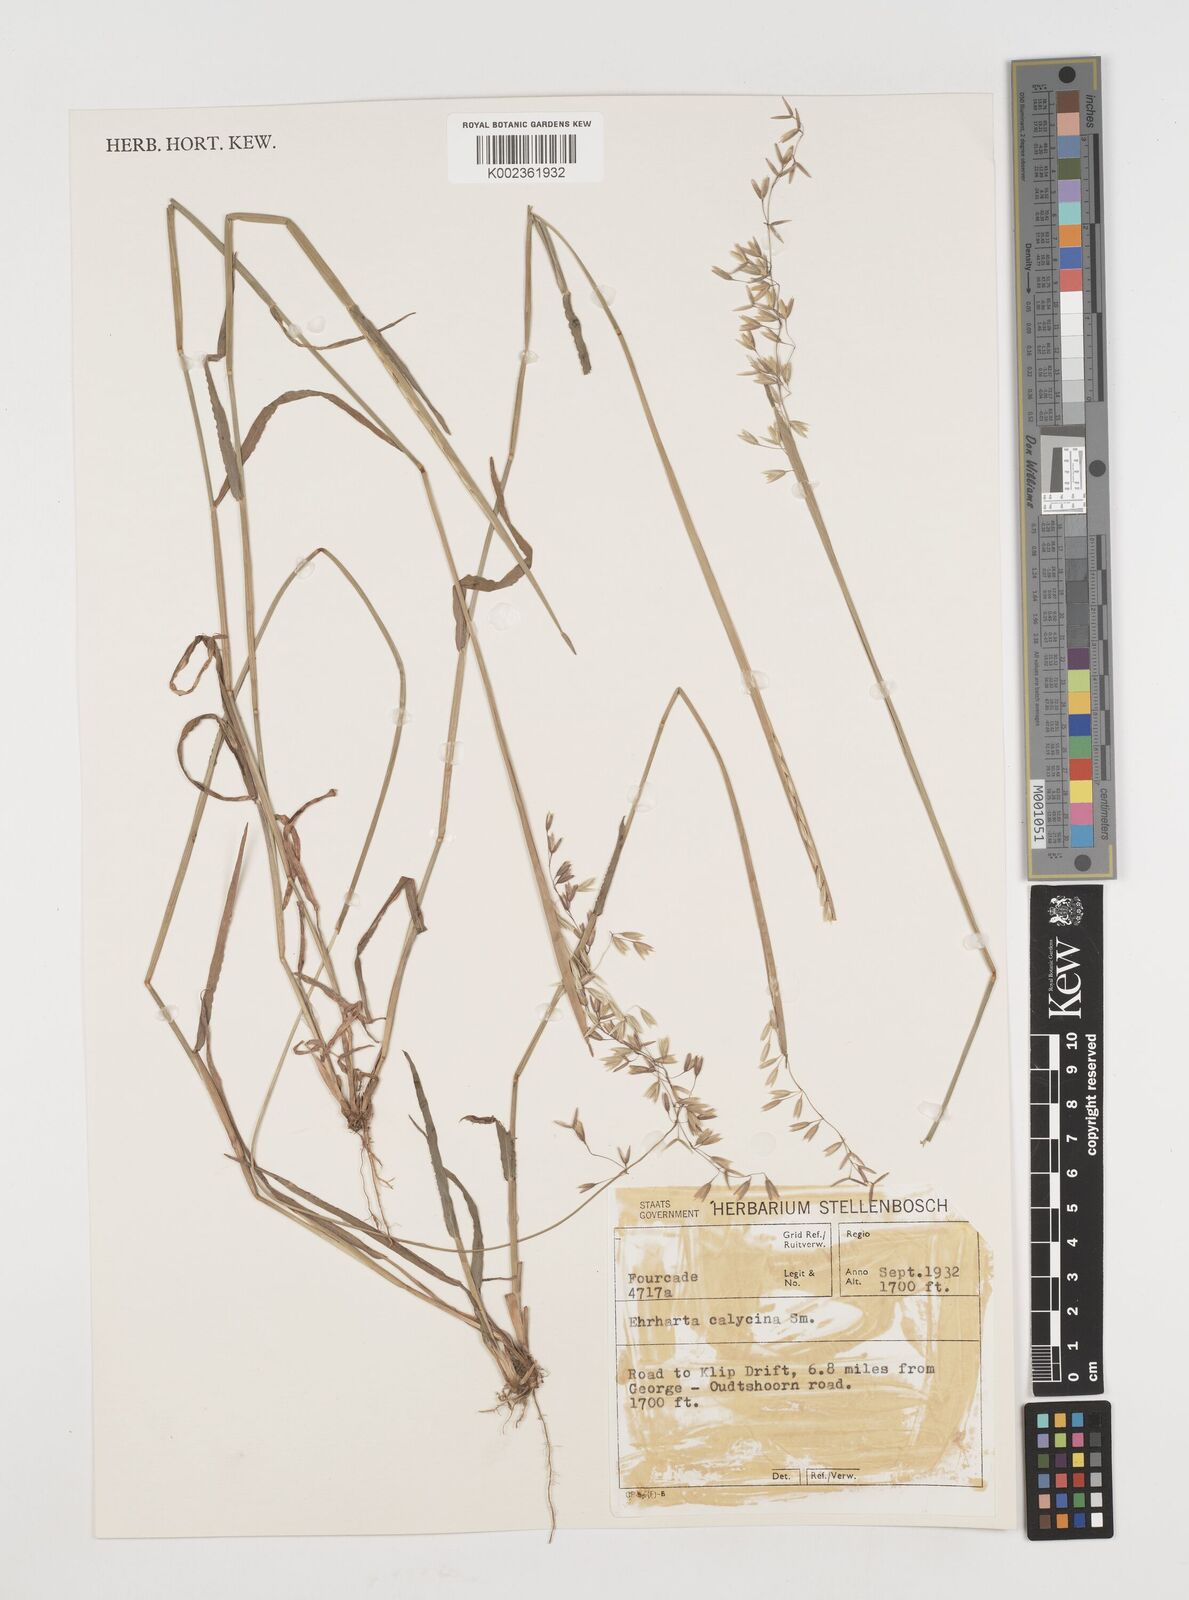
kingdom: Plantae
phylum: Tracheophyta
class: Liliopsida
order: Poales
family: Poaceae
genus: Ehrharta
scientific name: Ehrharta calycina
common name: Perennial veldtgrass
